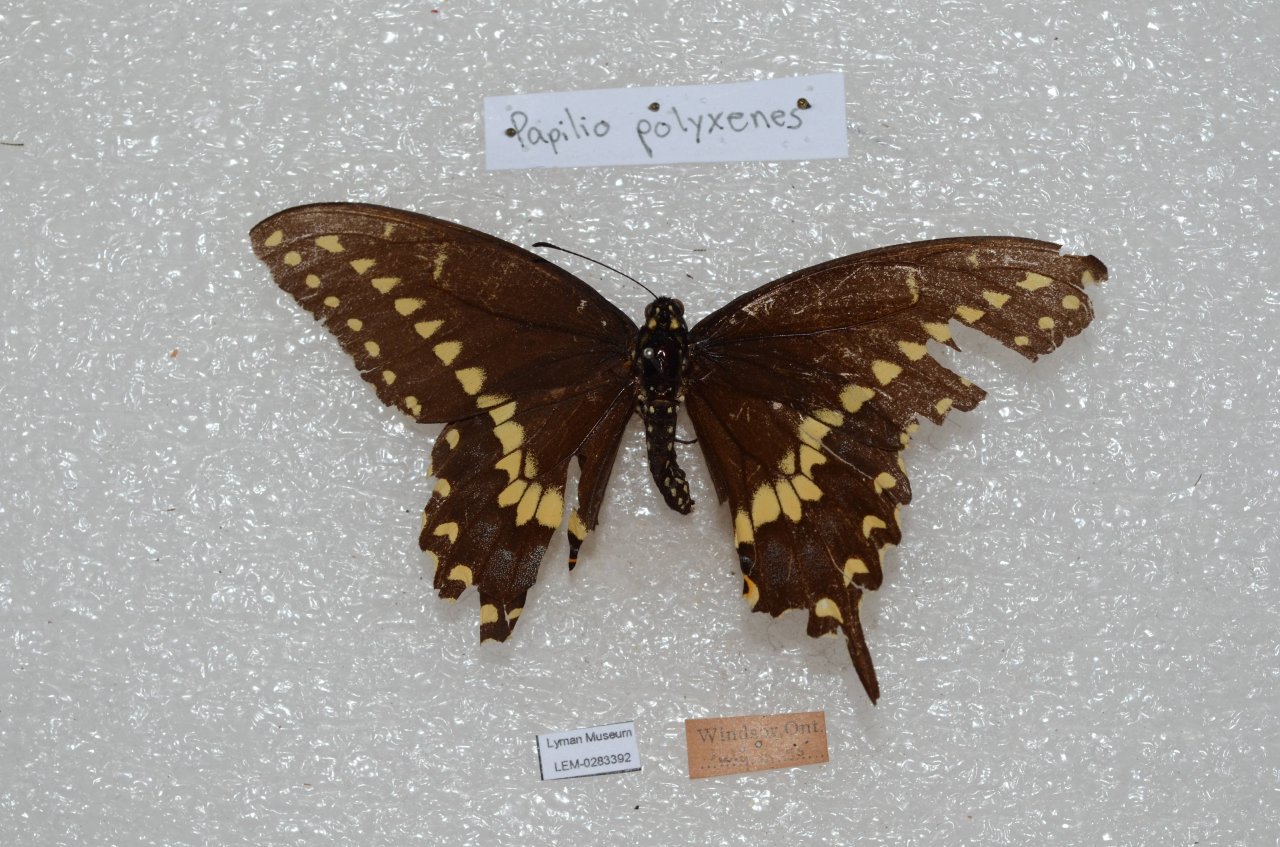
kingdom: Animalia
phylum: Arthropoda
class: Insecta
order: Lepidoptera
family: Papilionidae
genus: Papilio
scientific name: Papilio polyxenes
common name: Black Swallowtail
